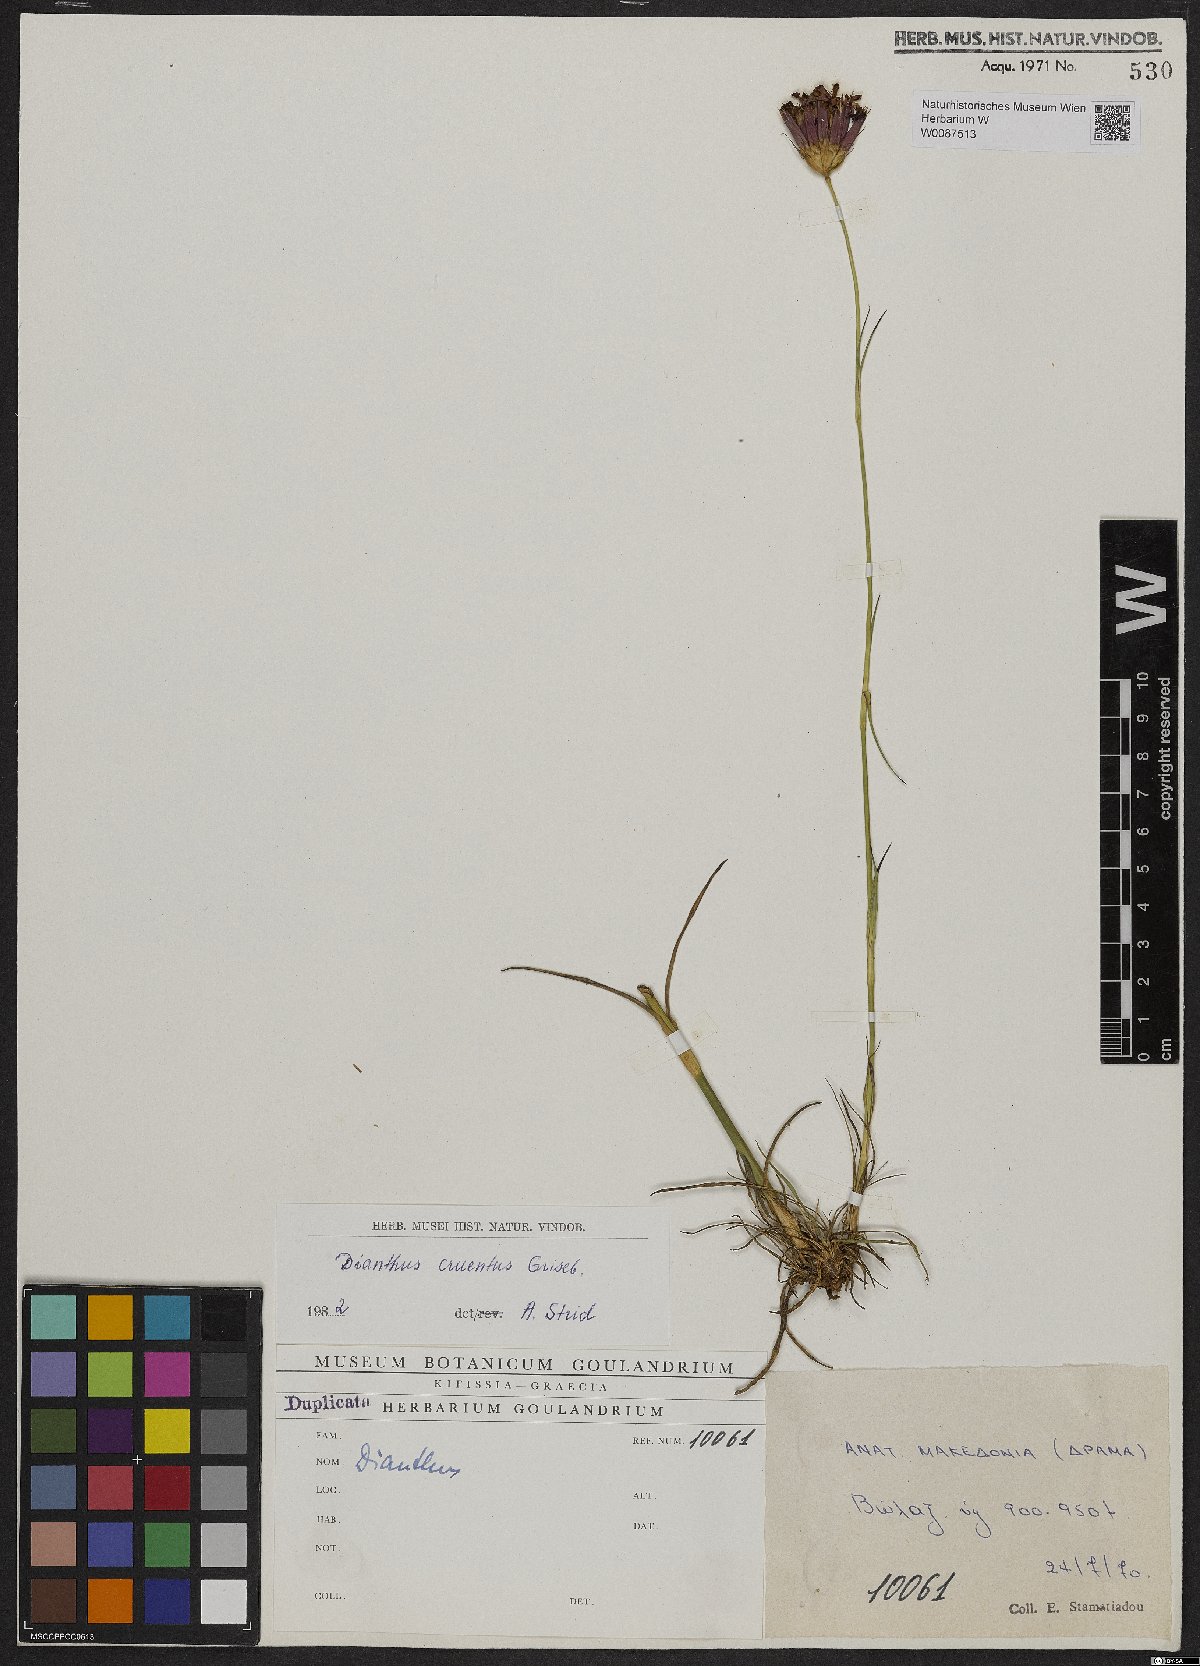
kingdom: Plantae
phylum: Tracheophyta
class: Magnoliopsida
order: Caryophyllales
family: Caryophyllaceae
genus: Dianthus
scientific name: Dianthus cruentus
